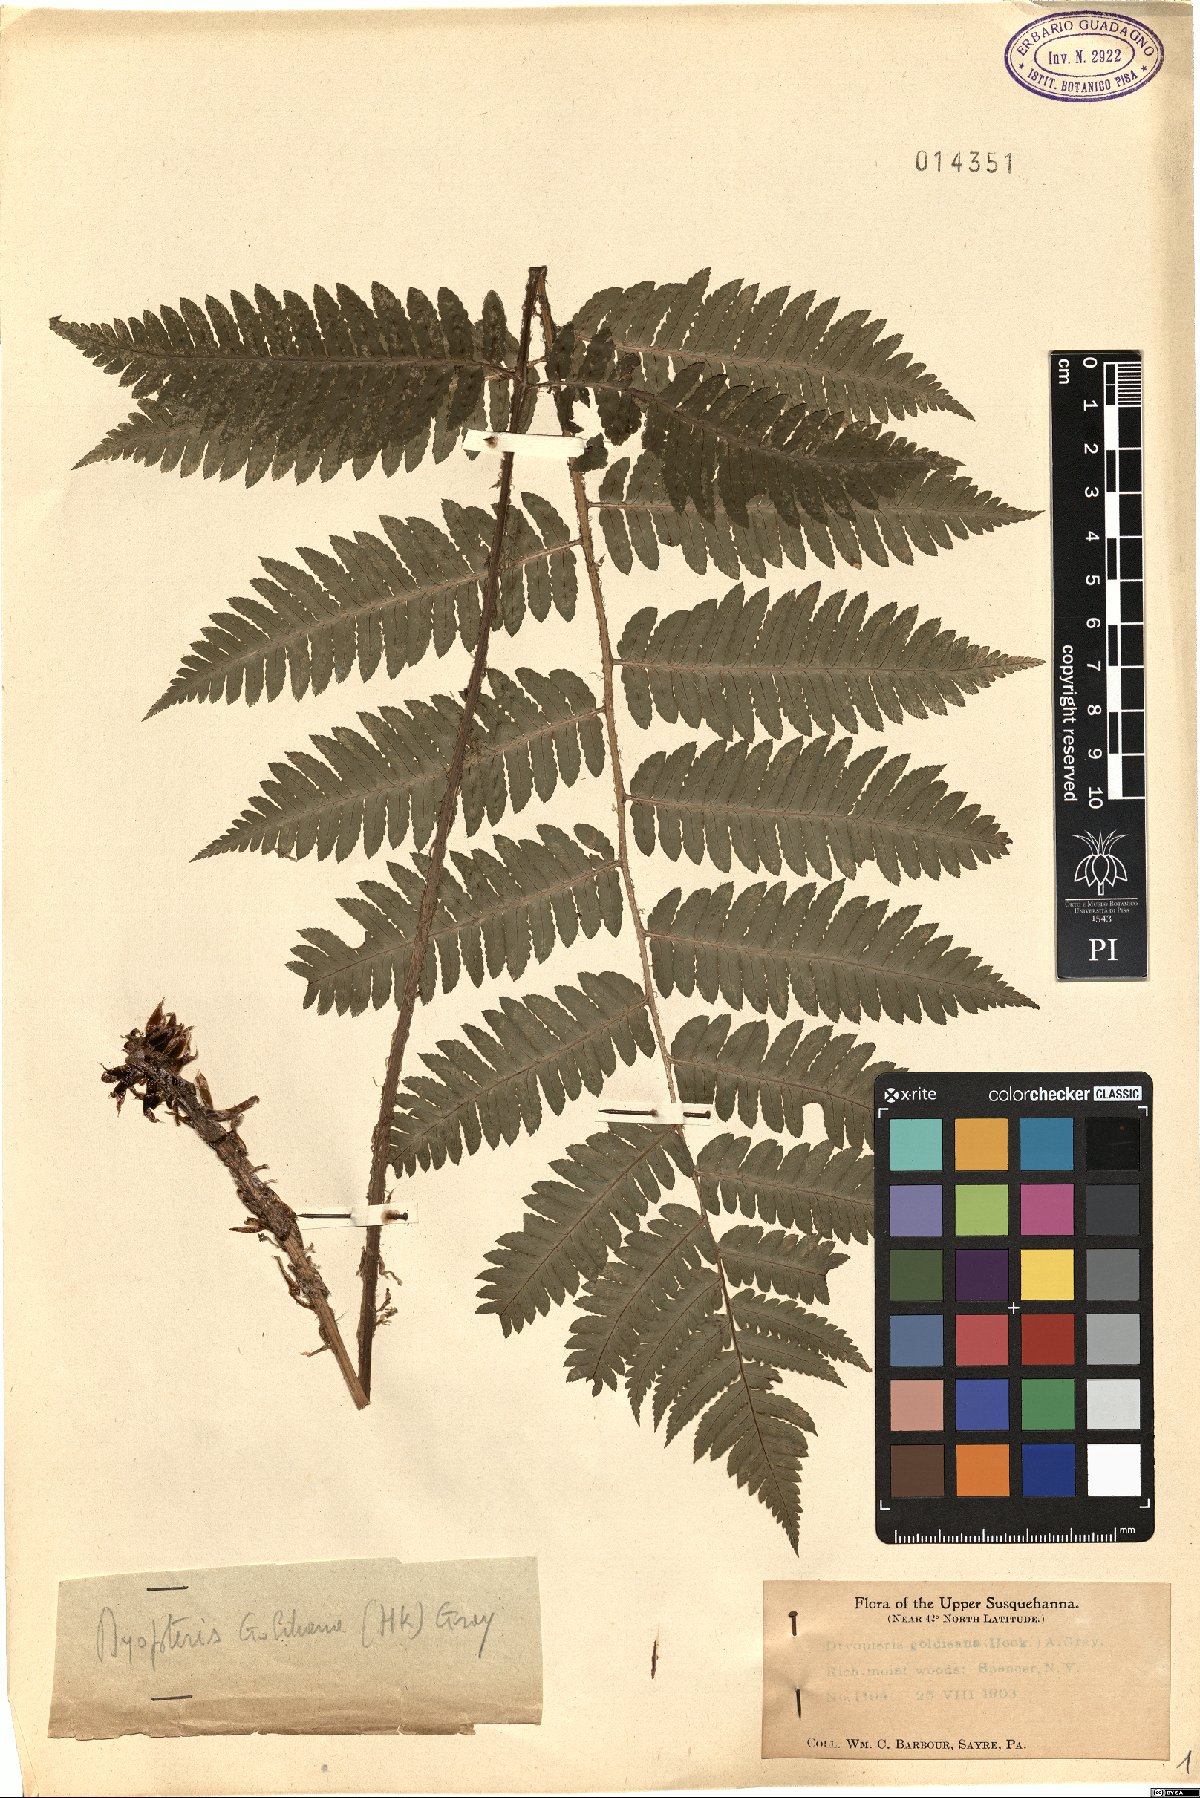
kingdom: Plantae
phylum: Tracheophyta
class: Polypodiopsida
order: Polypodiales
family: Dryopteridaceae
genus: Dryopteris
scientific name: Dryopteris goeldiana
